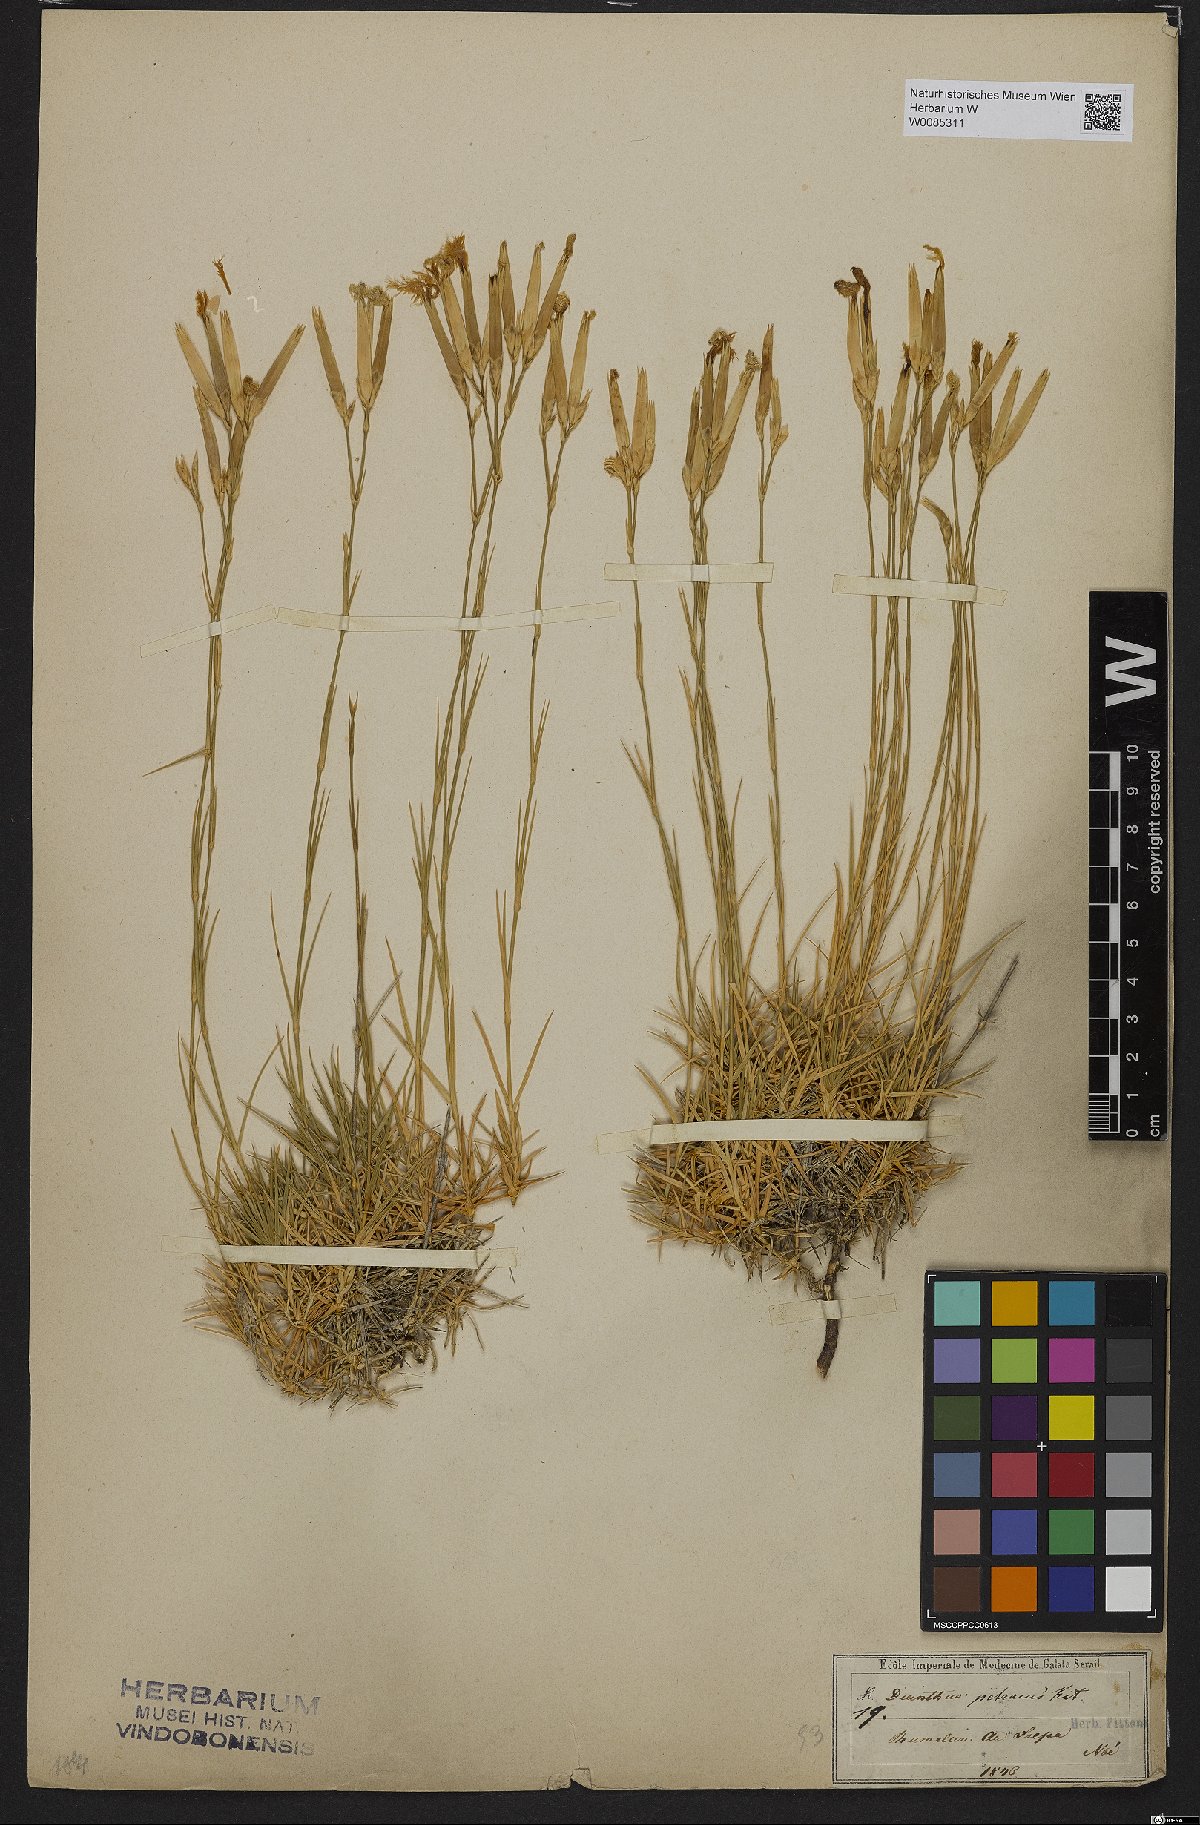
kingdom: Plantae
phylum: Tracheophyta
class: Magnoliopsida
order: Caryophyllales
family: Caryophyllaceae
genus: Dianthus
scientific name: Dianthus petraeus
